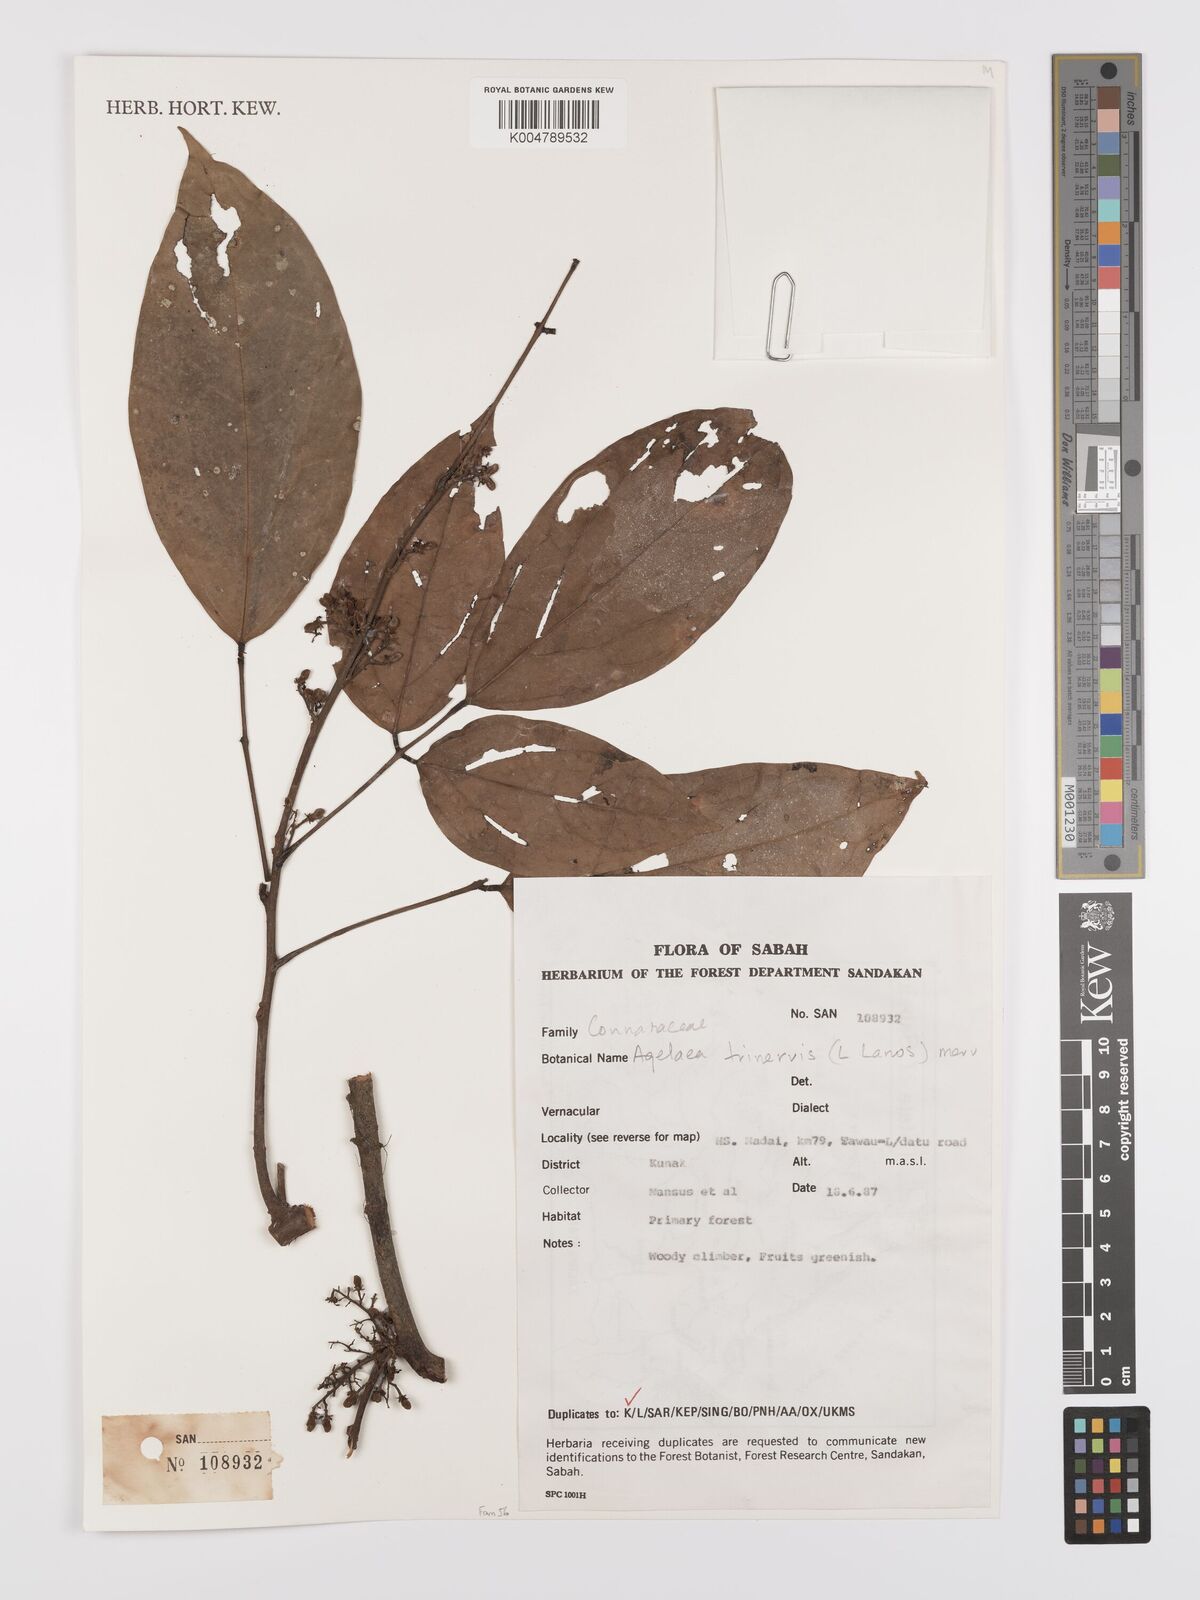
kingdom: Plantae
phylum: Tracheophyta
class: Magnoliopsida
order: Oxalidales
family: Connaraceae
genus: Agelaea
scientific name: Agelaea trinervis
